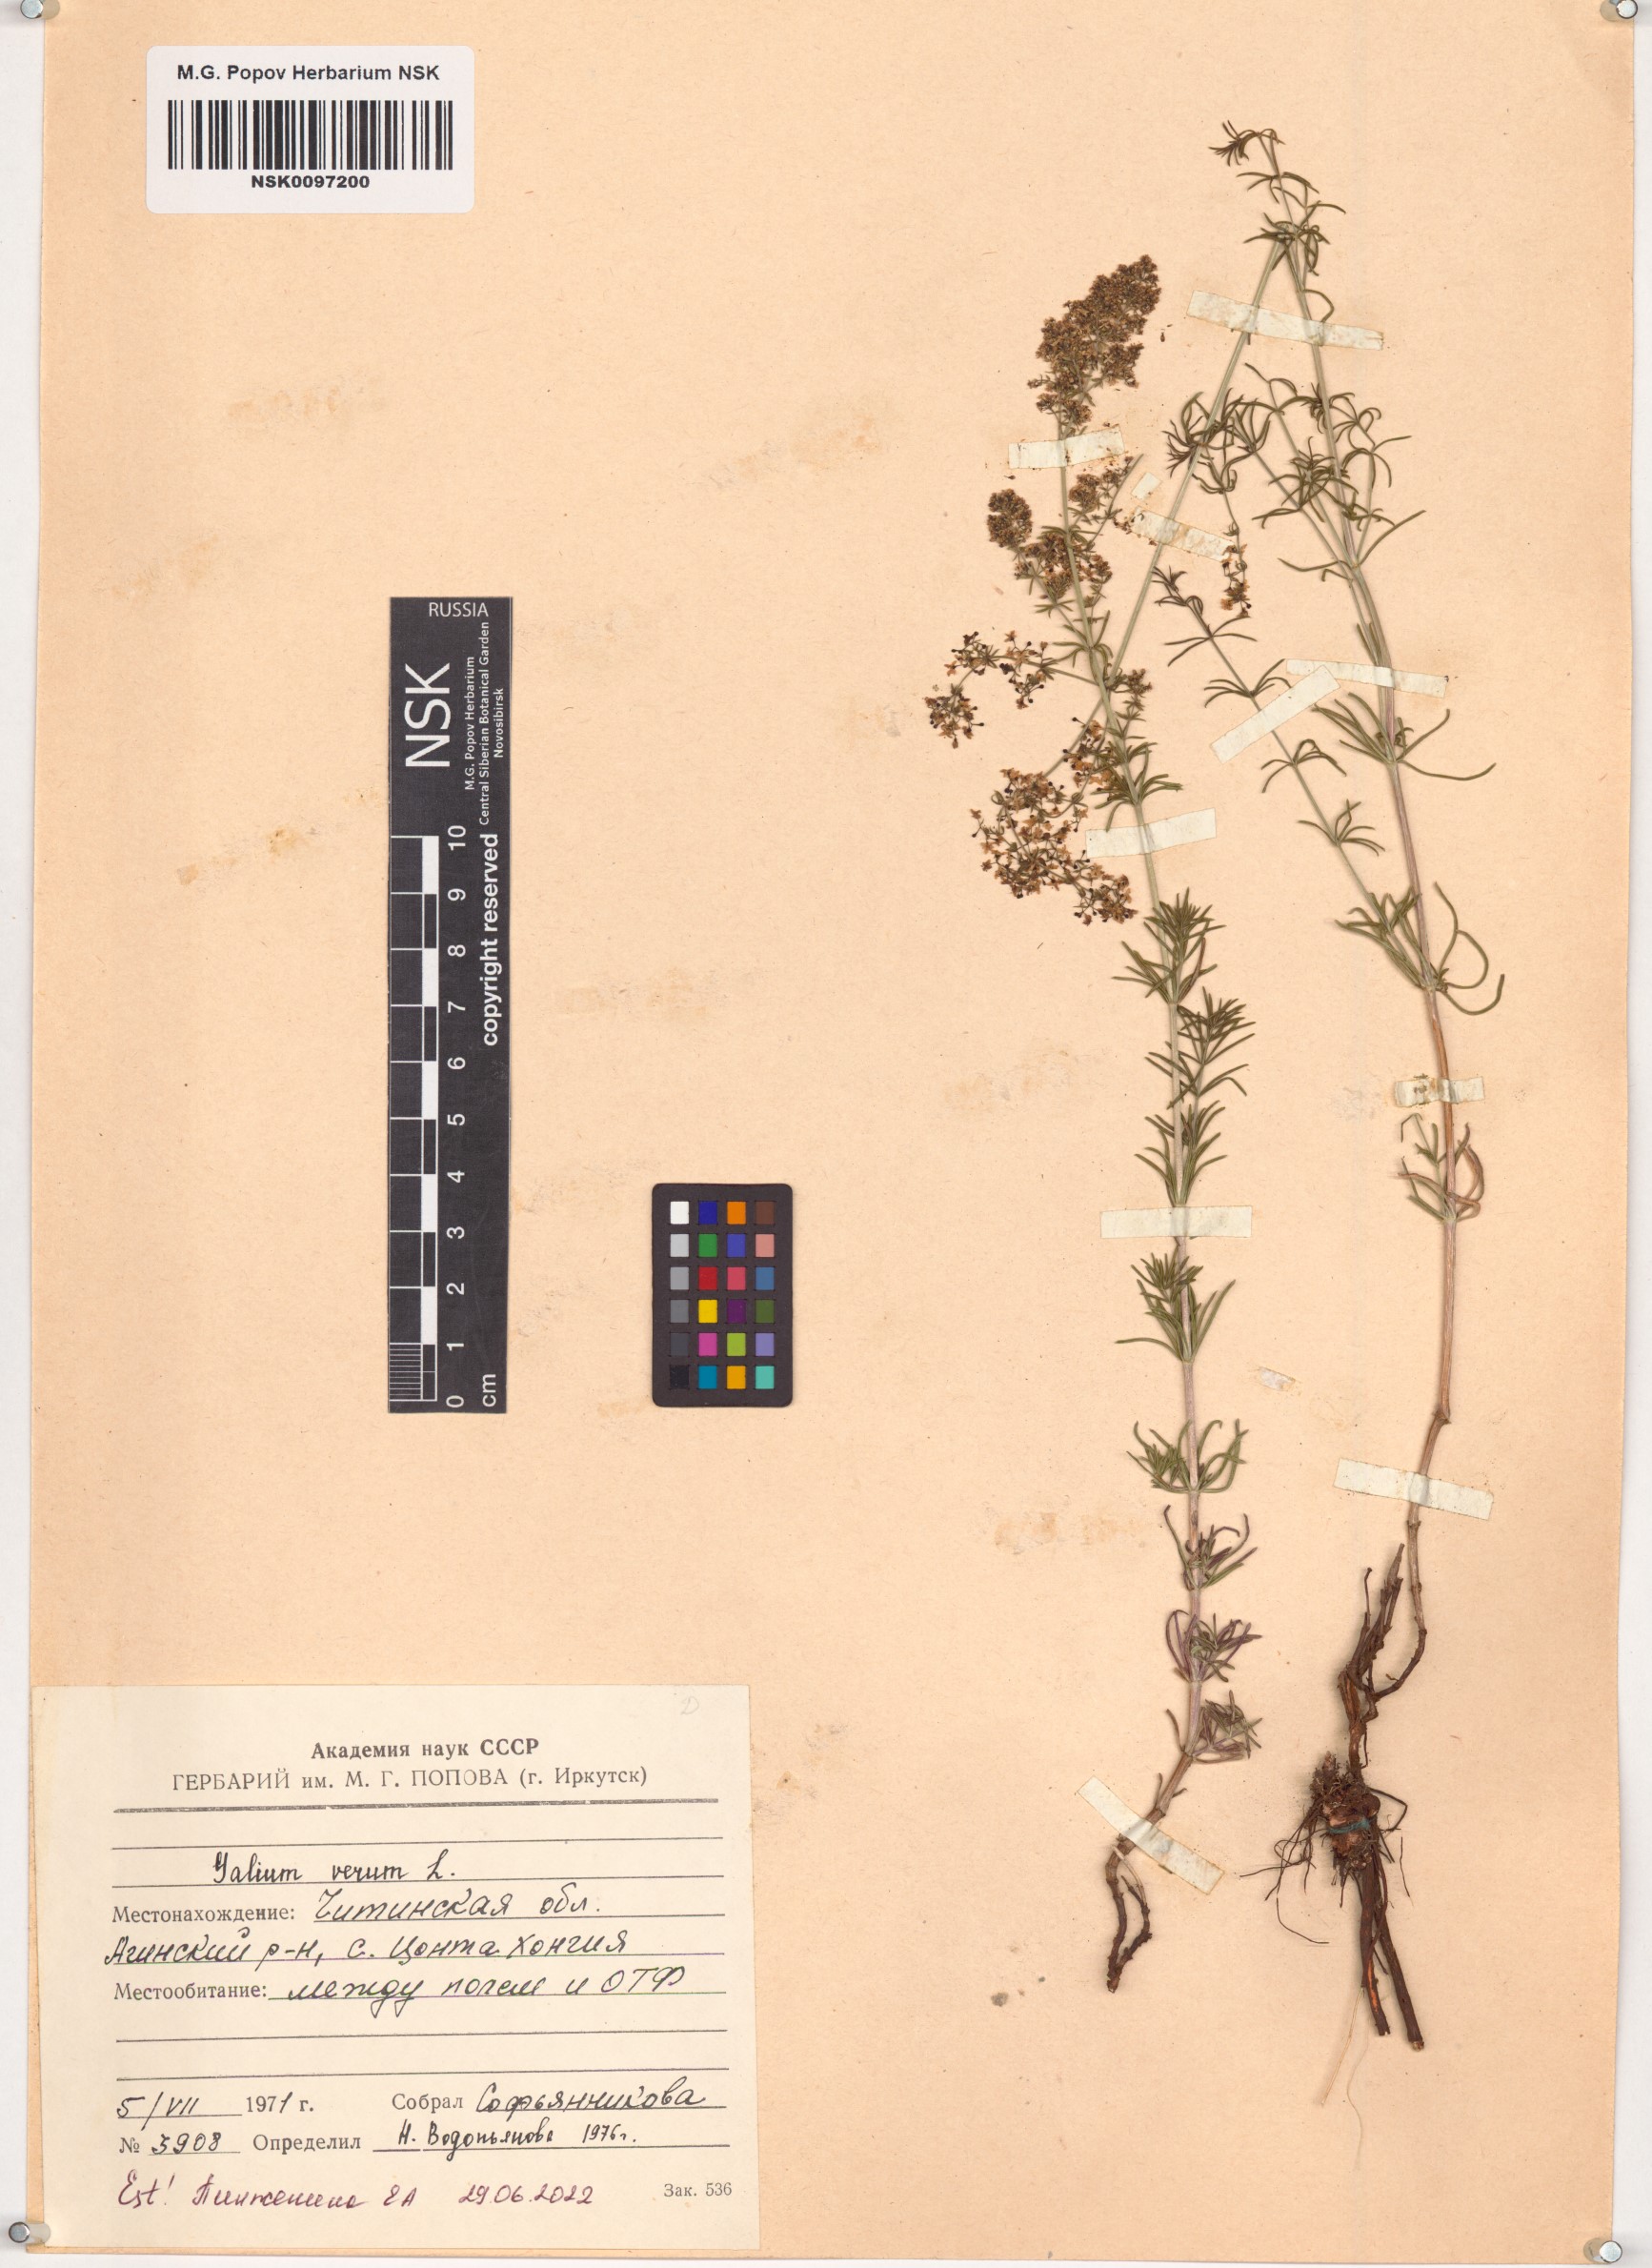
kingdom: Plantae
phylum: Tracheophyta
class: Magnoliopsida
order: Gentianales
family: Rubiaceae
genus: Galium
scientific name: Galium verum
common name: Lady's bedstraw
